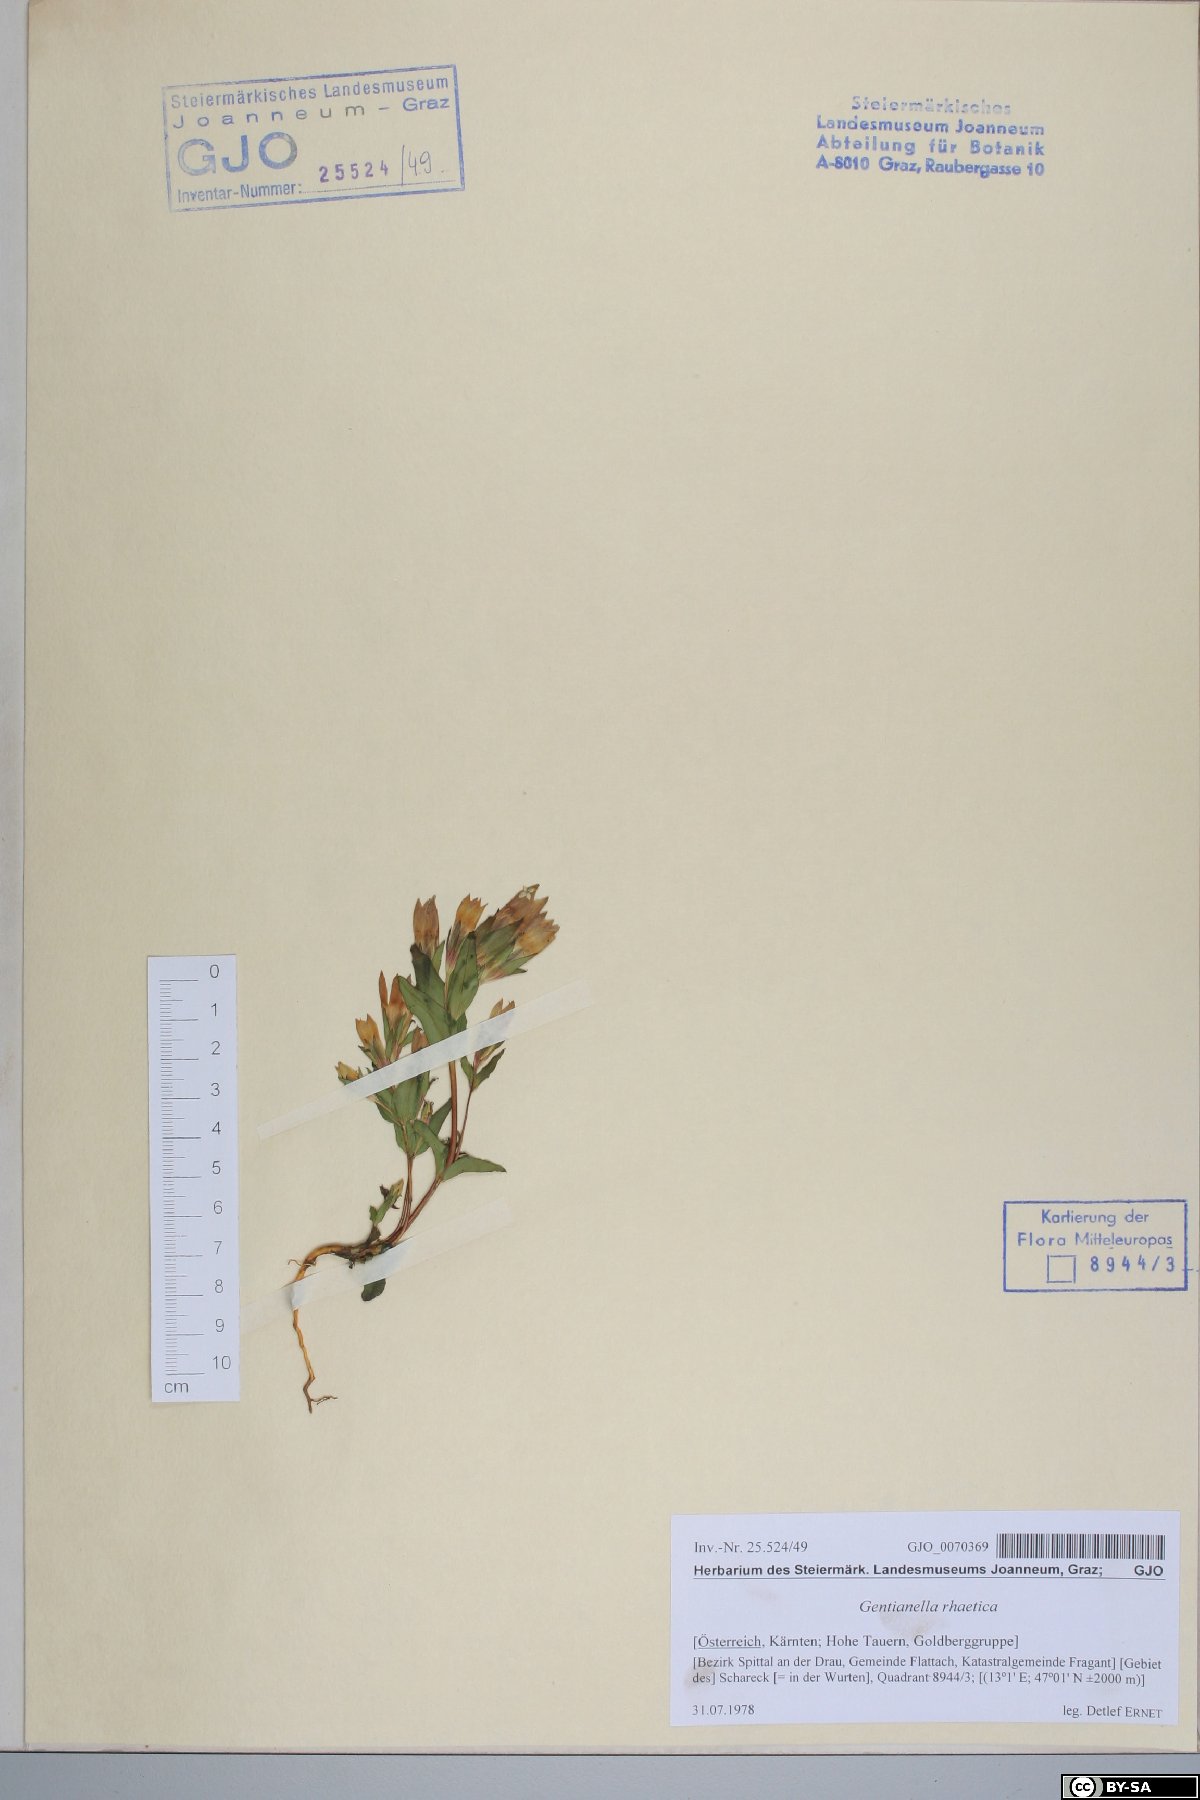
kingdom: Plantae
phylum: Tracheophyta
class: Magnoliopsida
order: Gentianales
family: Gentianaceae
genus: Gentianella
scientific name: Gentianella rhaetica
